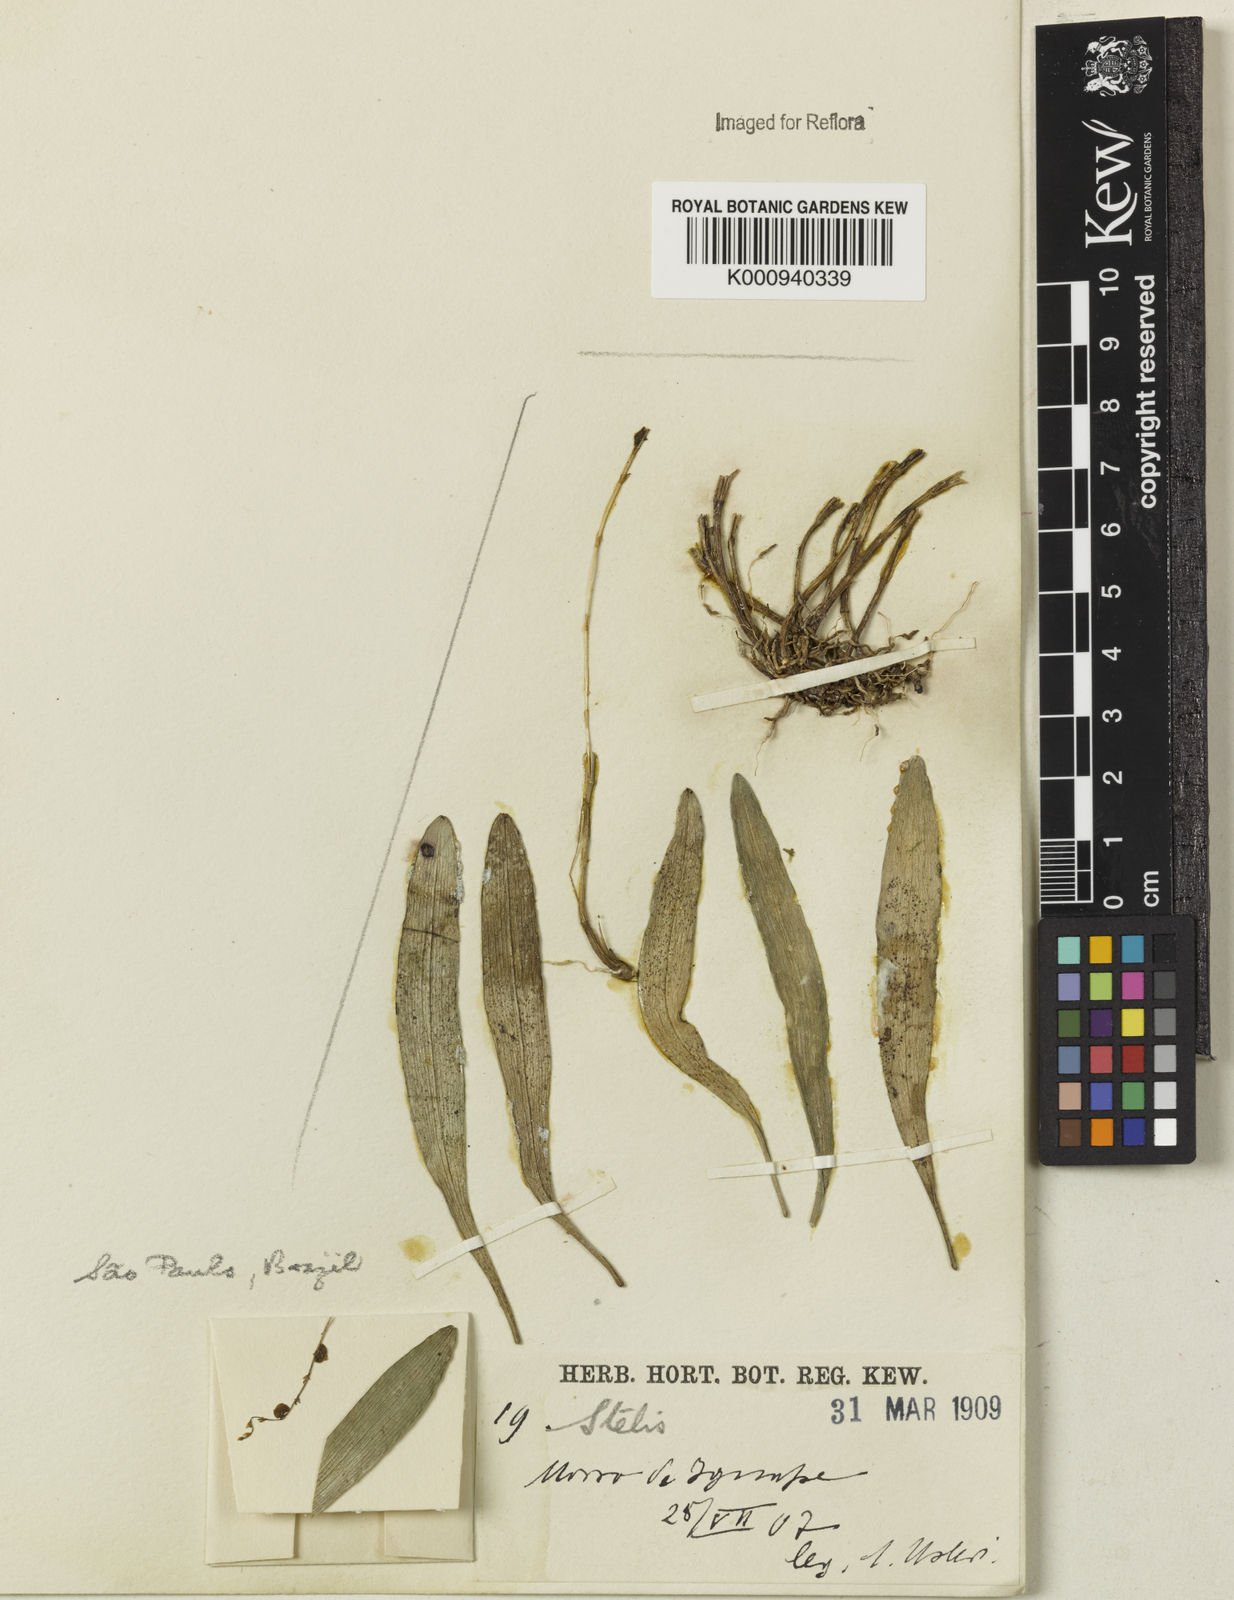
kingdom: Plantae
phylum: Tracheophyta
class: Liliopsida
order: Asparagales
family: Orchidaceae
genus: Stelis
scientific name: Stelis
